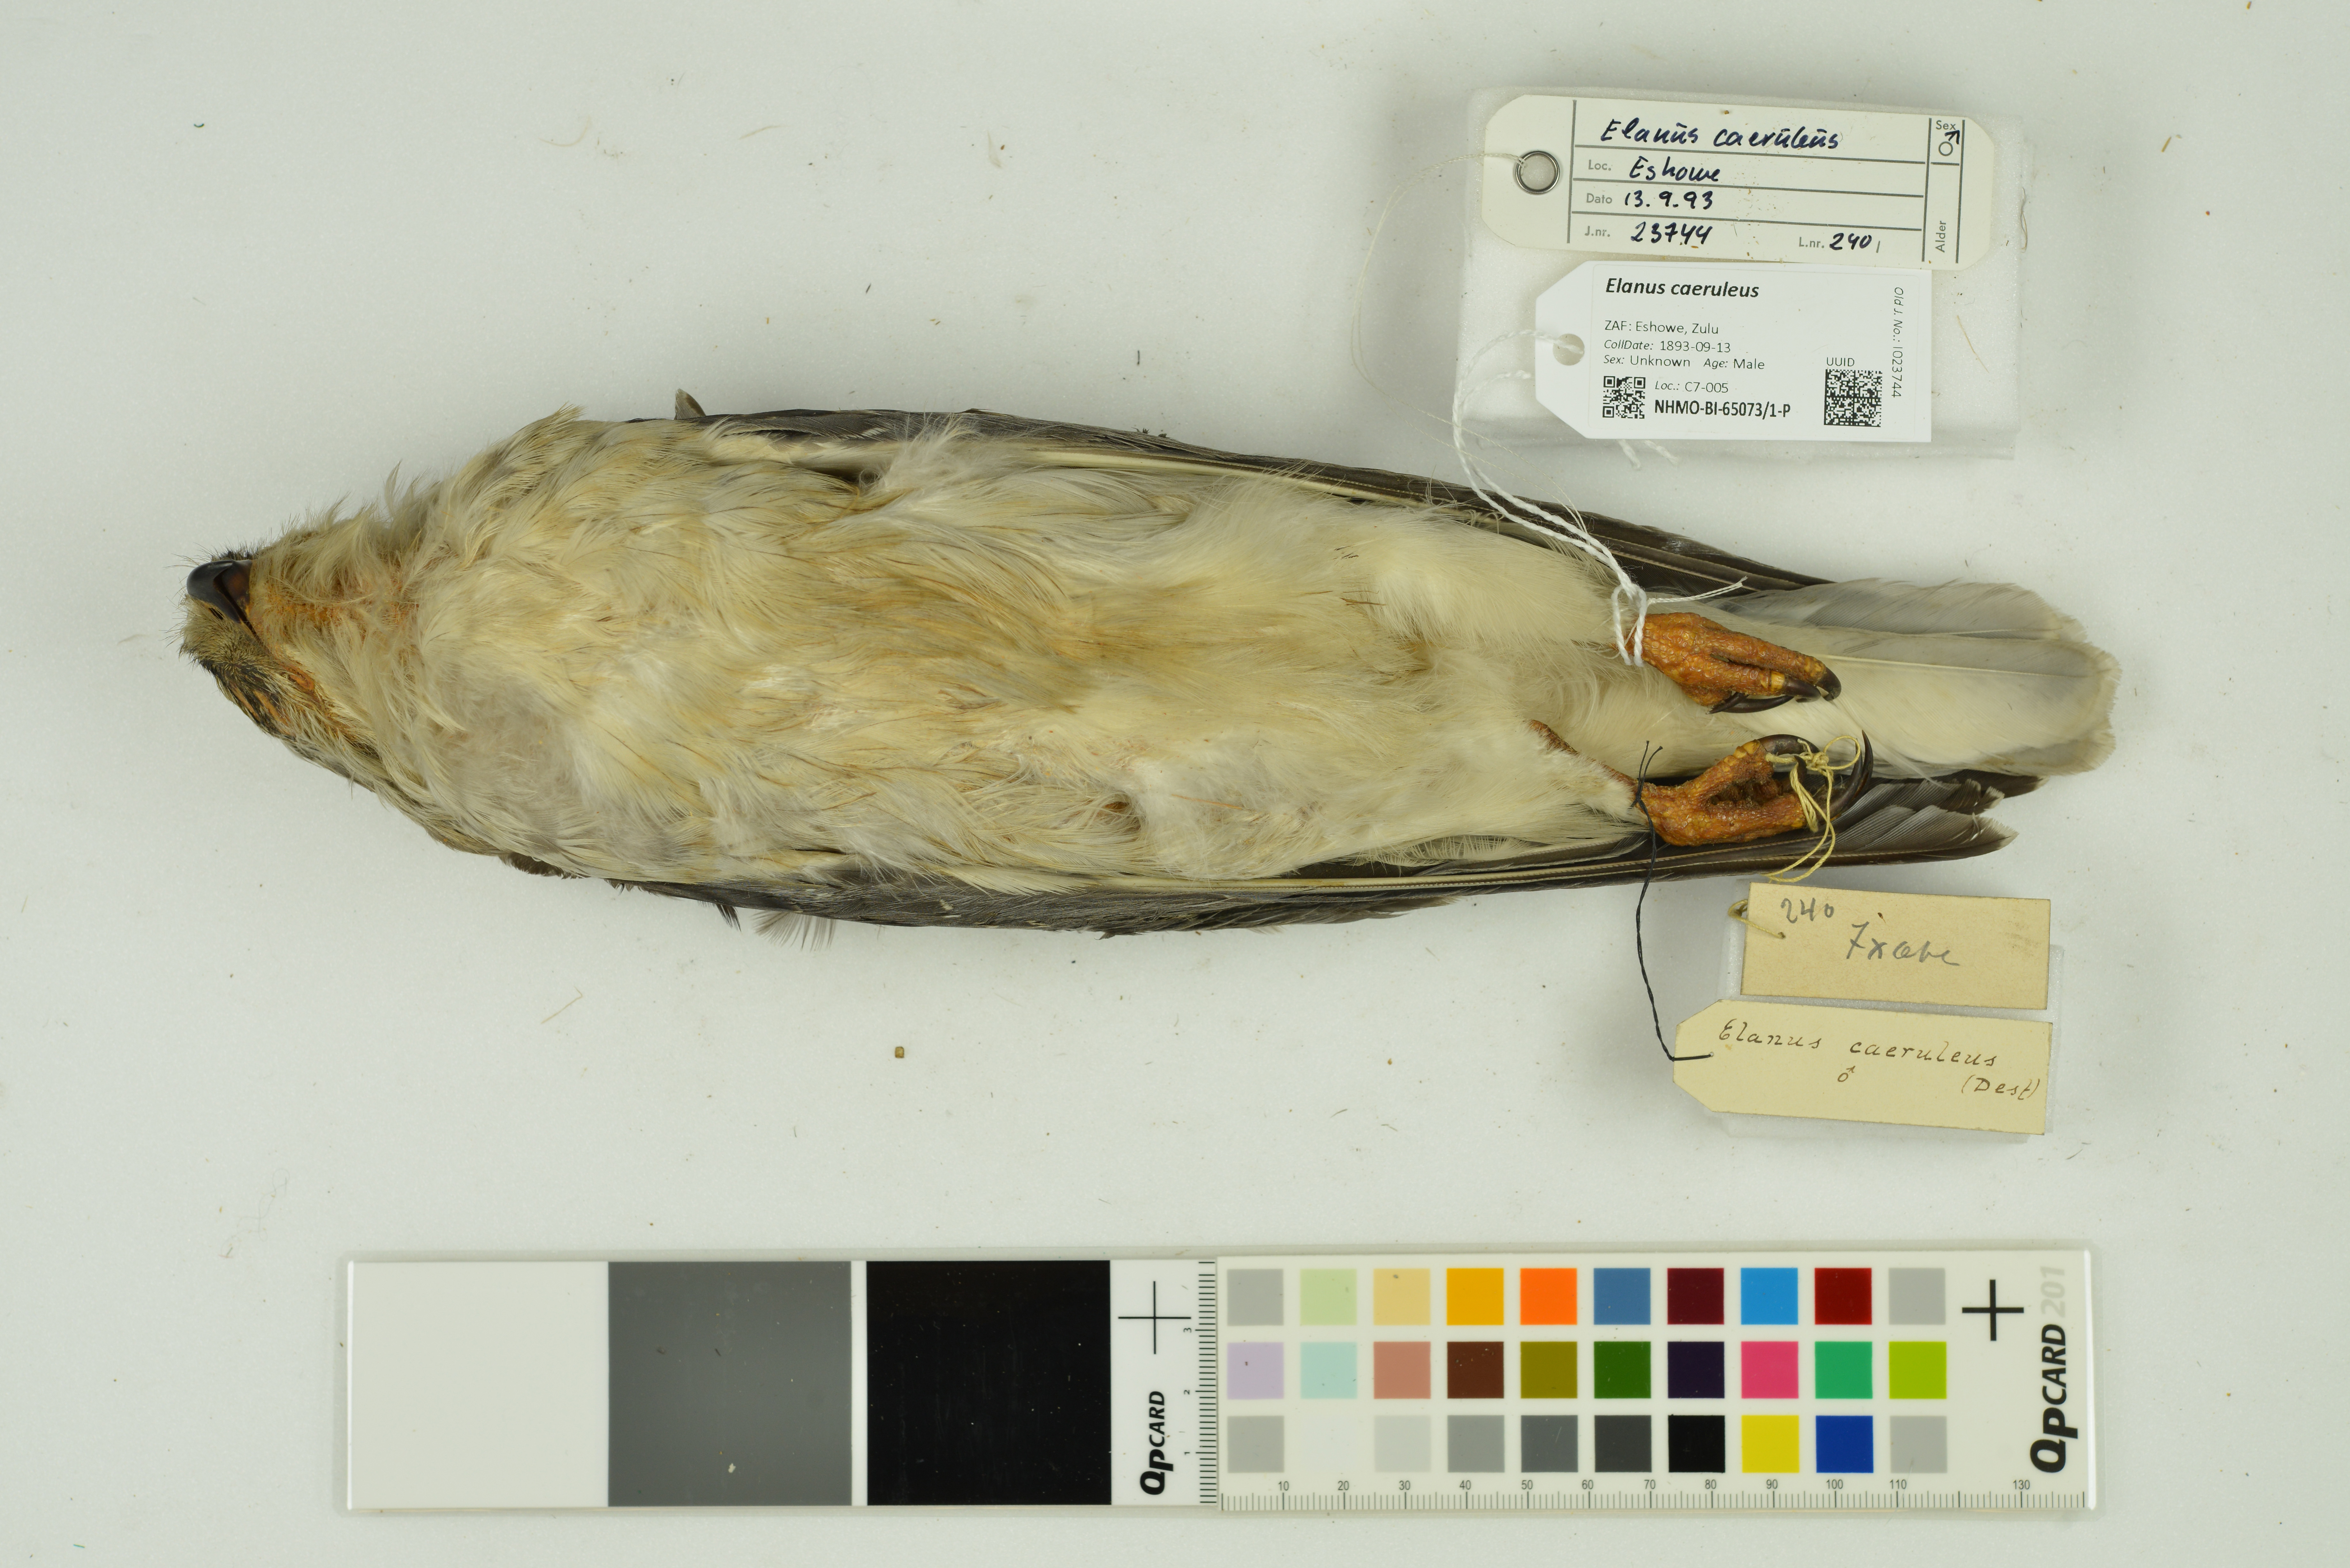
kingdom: Animalia
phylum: Chordata
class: Aves
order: Accipitriformes
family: Accipitridae
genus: Elanus
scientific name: Elanus caeruleus
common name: Black-winged kite
